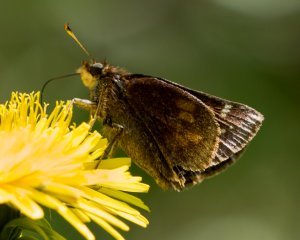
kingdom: Animalia
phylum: Arthropoda
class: Insecta
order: Lepidoptera
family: Hesperiidae
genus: Lon
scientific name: Lon hobomok
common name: Hobomok Skipper
